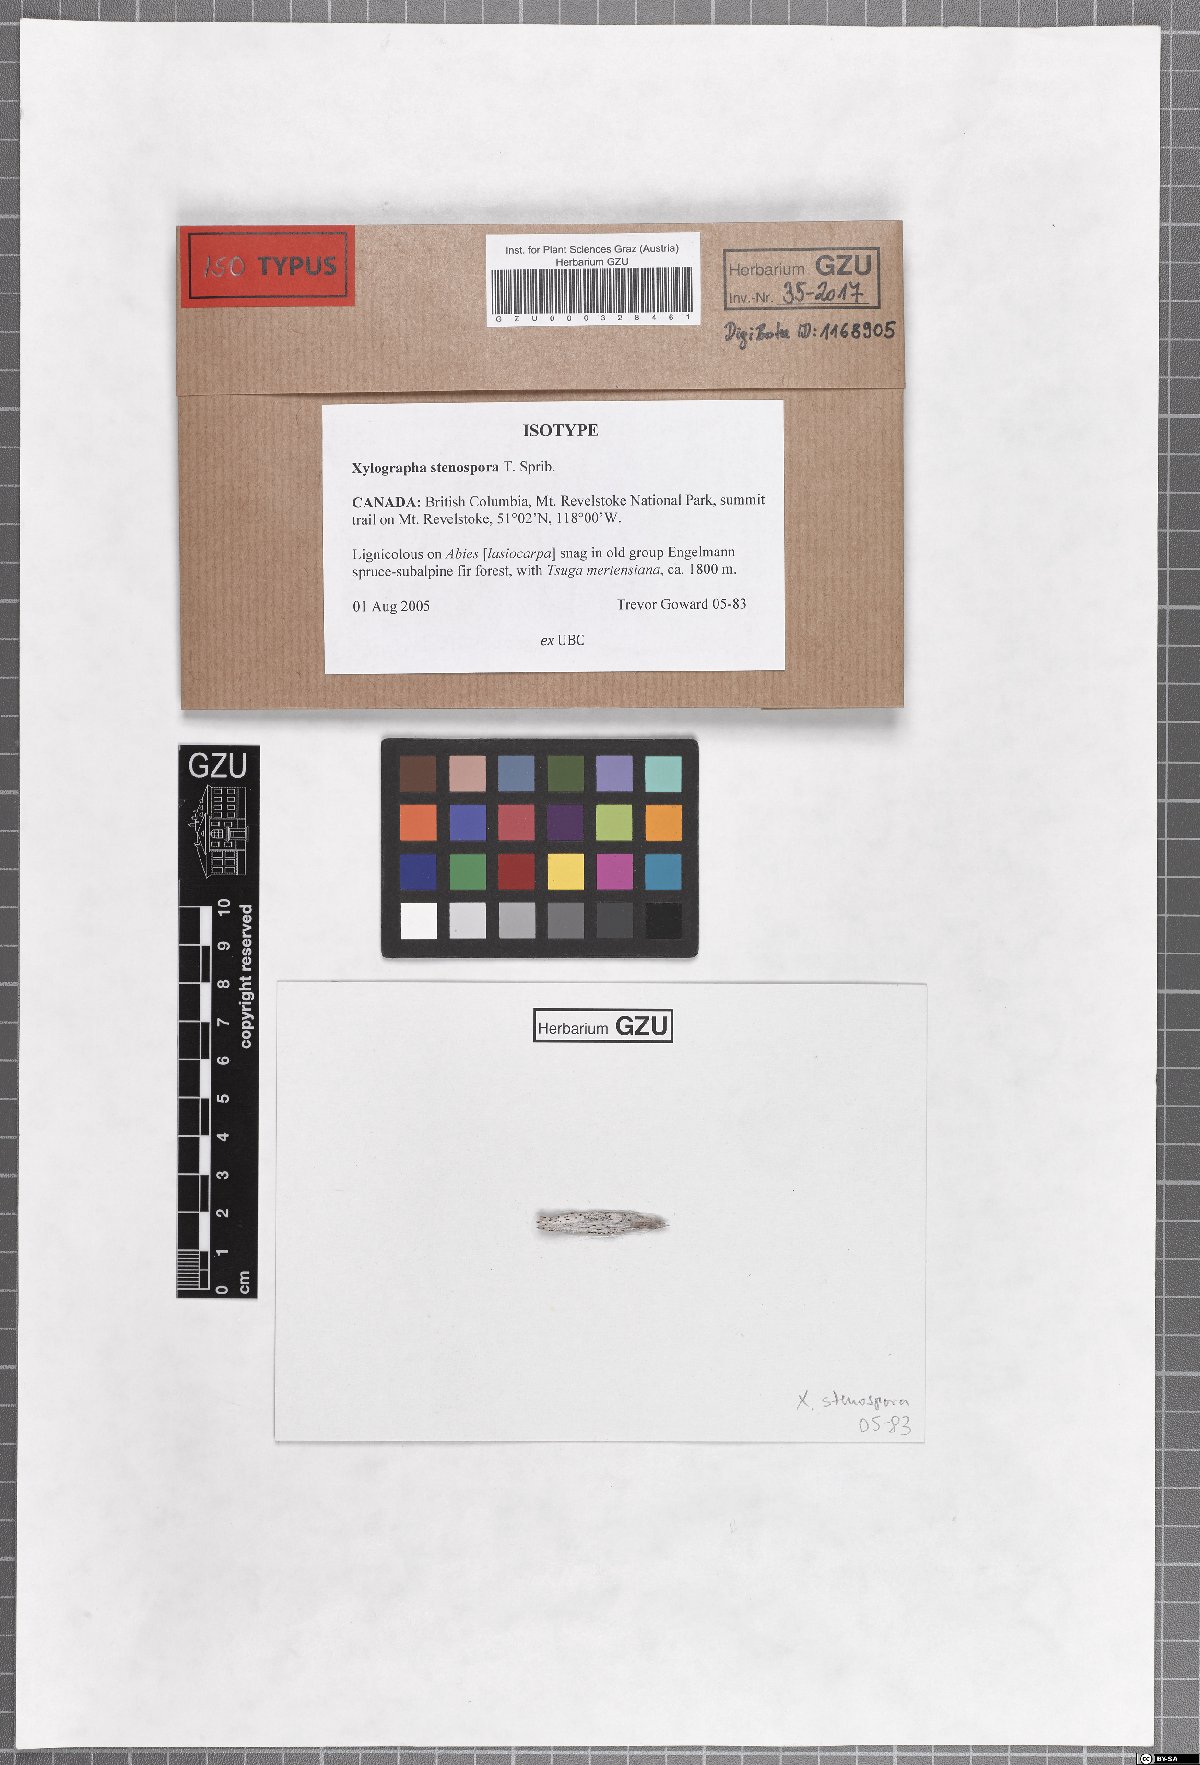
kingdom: Fungi
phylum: Ascomycota
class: Lecanoromycetes
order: Baeomycetales
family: Xylographaceae
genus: Xylographa
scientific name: Xylographa stenospora
